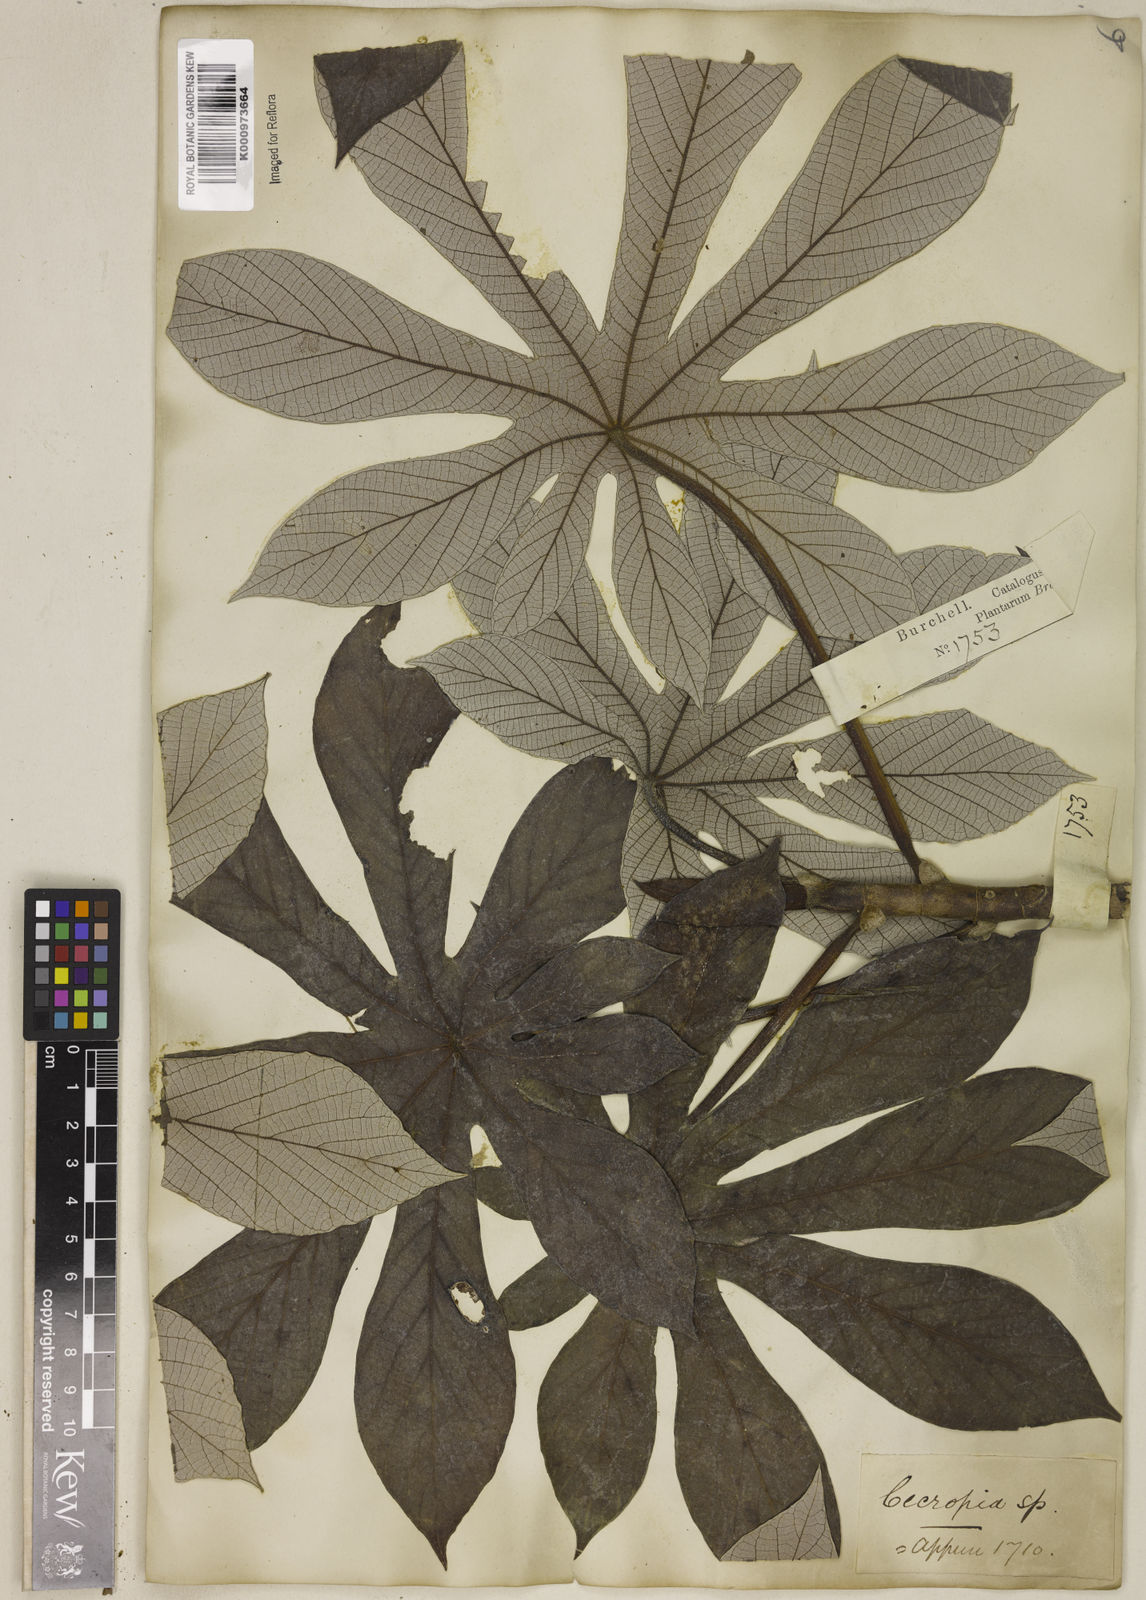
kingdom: Plantae
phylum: Tracheophyta
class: Magnoliopsida
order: Rosales
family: Urticaceae
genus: Cecropia
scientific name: Cecropia glaziovii
